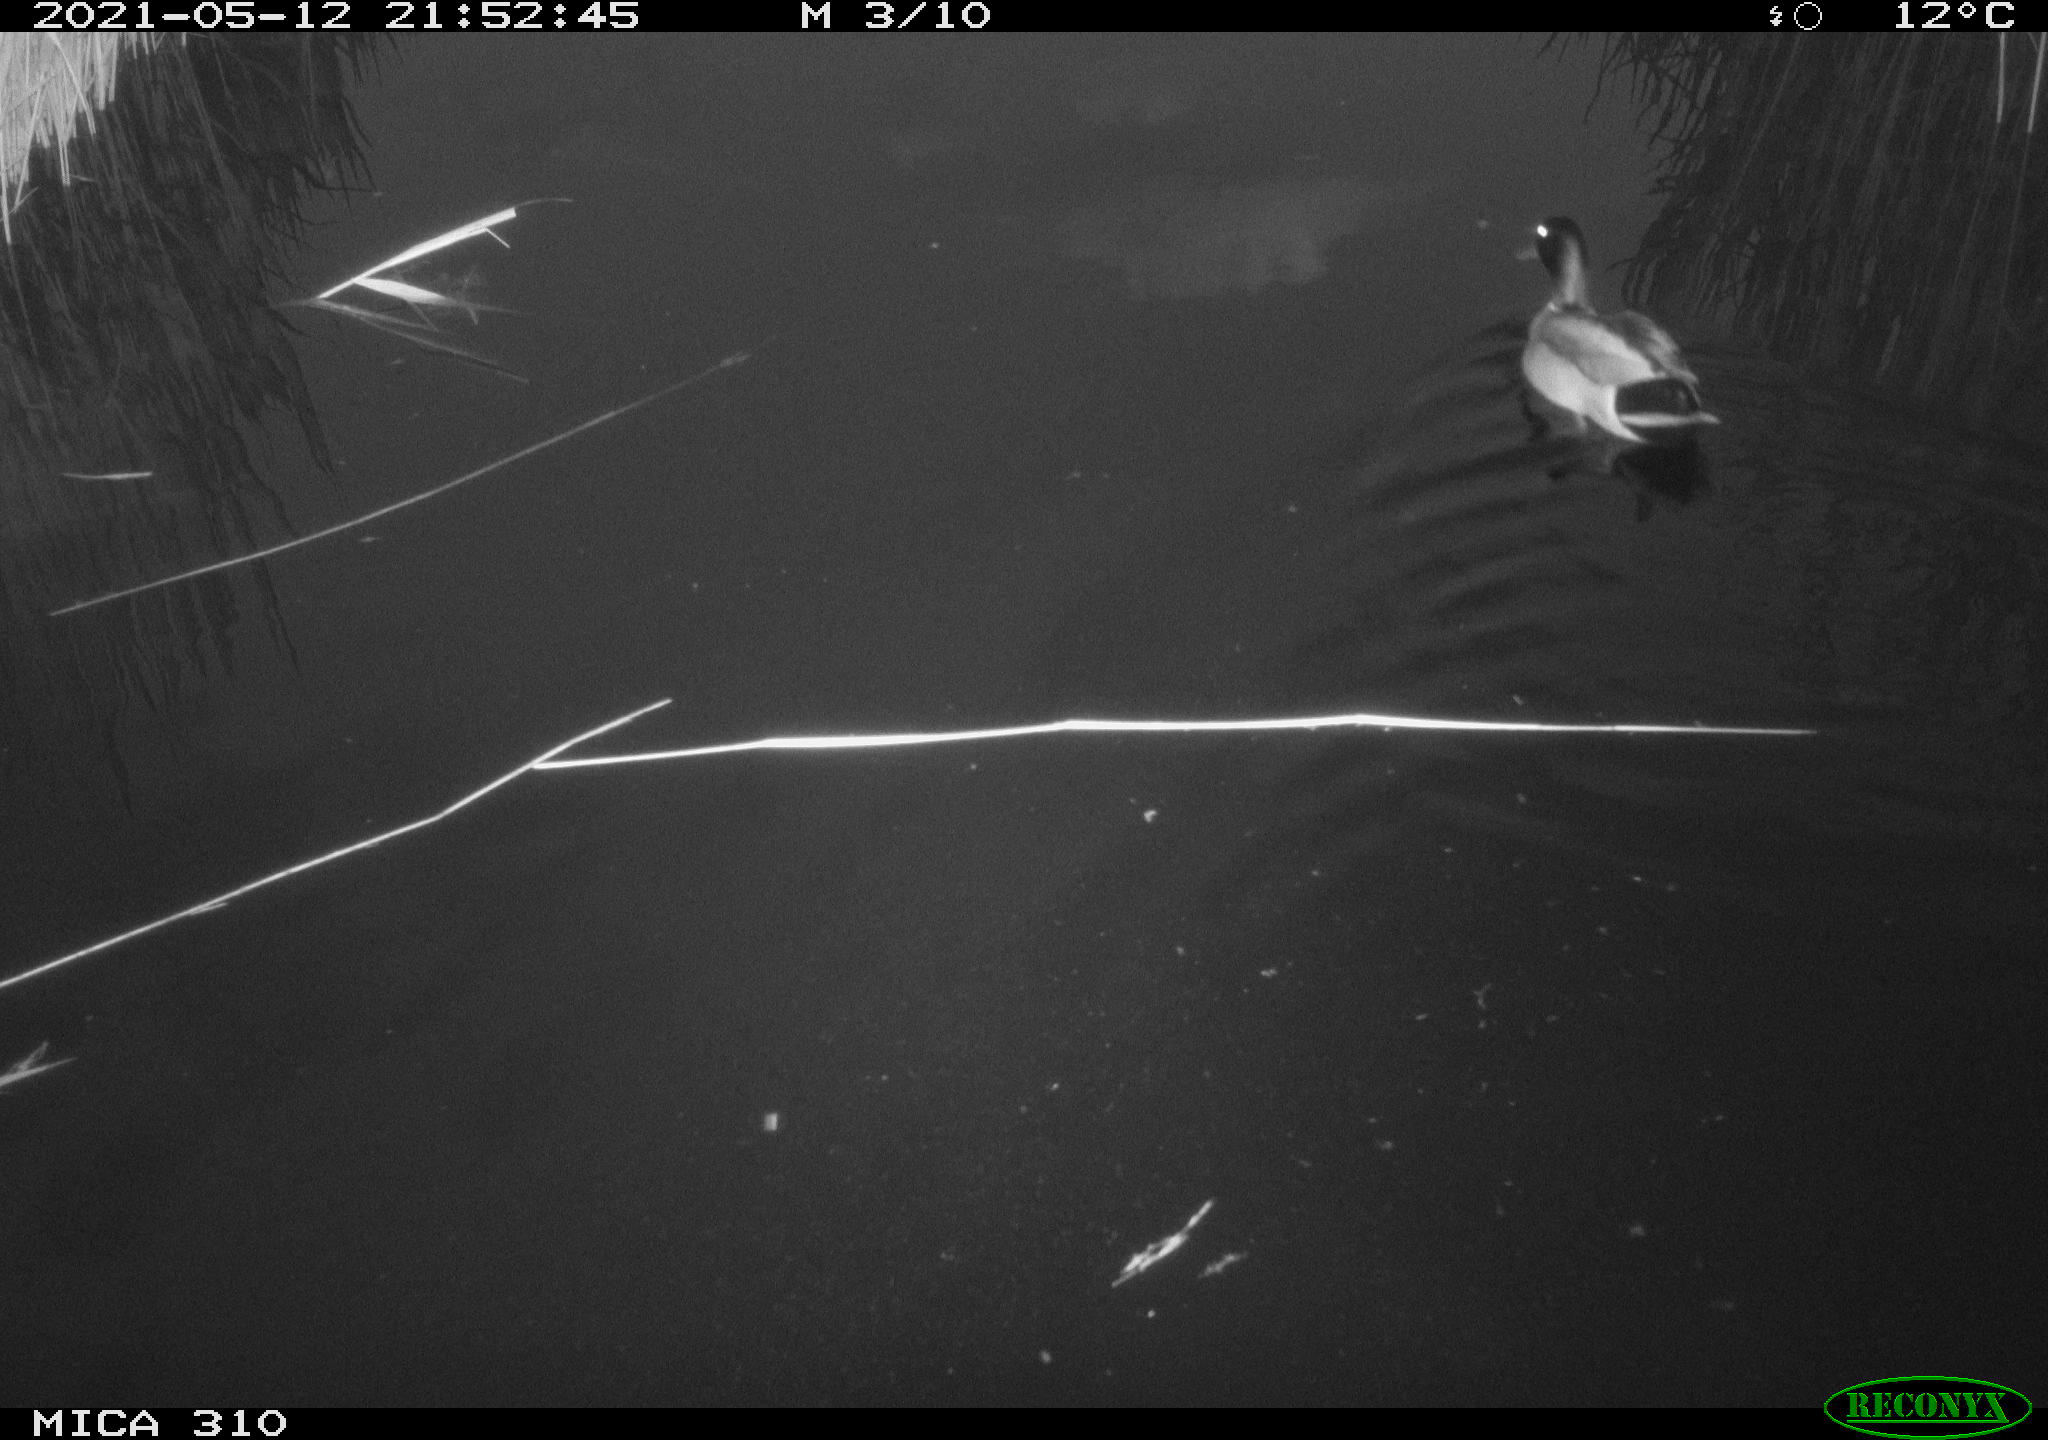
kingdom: Animalia
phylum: Chordata
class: Aves
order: Anseriformes
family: Anatidae
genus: Anas
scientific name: Anas platyrhynchos
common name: Mallard
